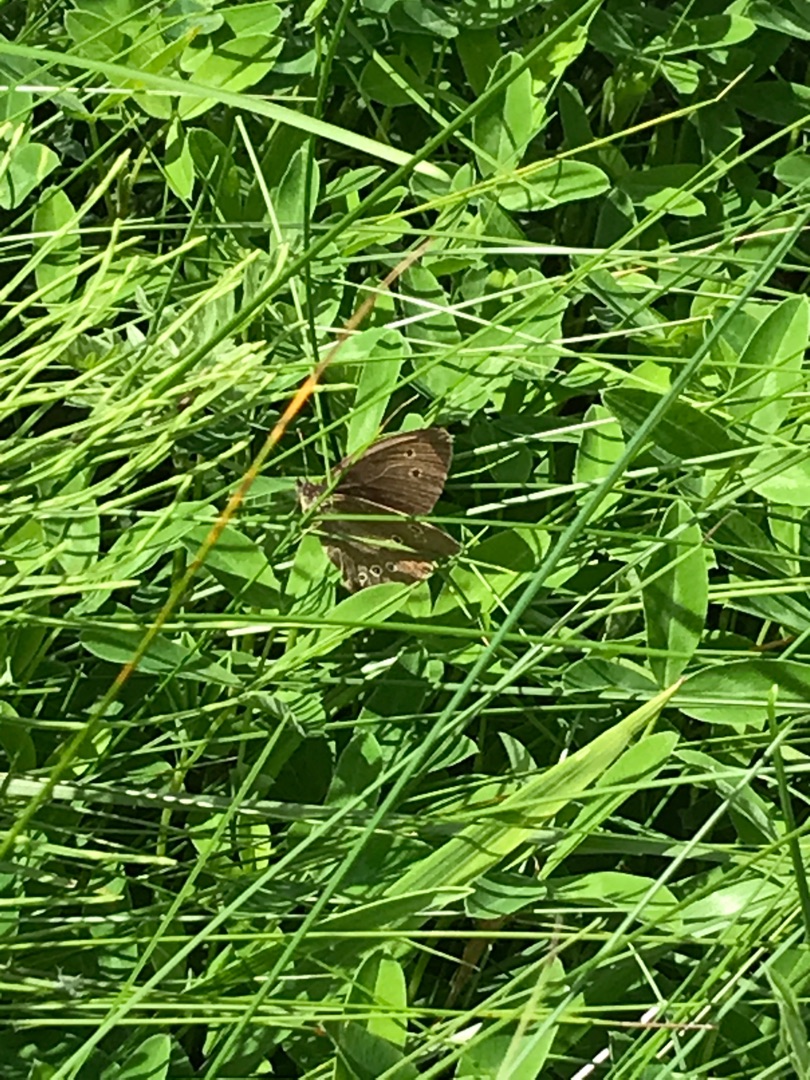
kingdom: Animalia
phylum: Arthropoda
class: Insecta
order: Lepidoptera
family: Nymphalidae
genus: Aphantopus
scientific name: Aphantopus hyperantus
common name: Engrandøje
